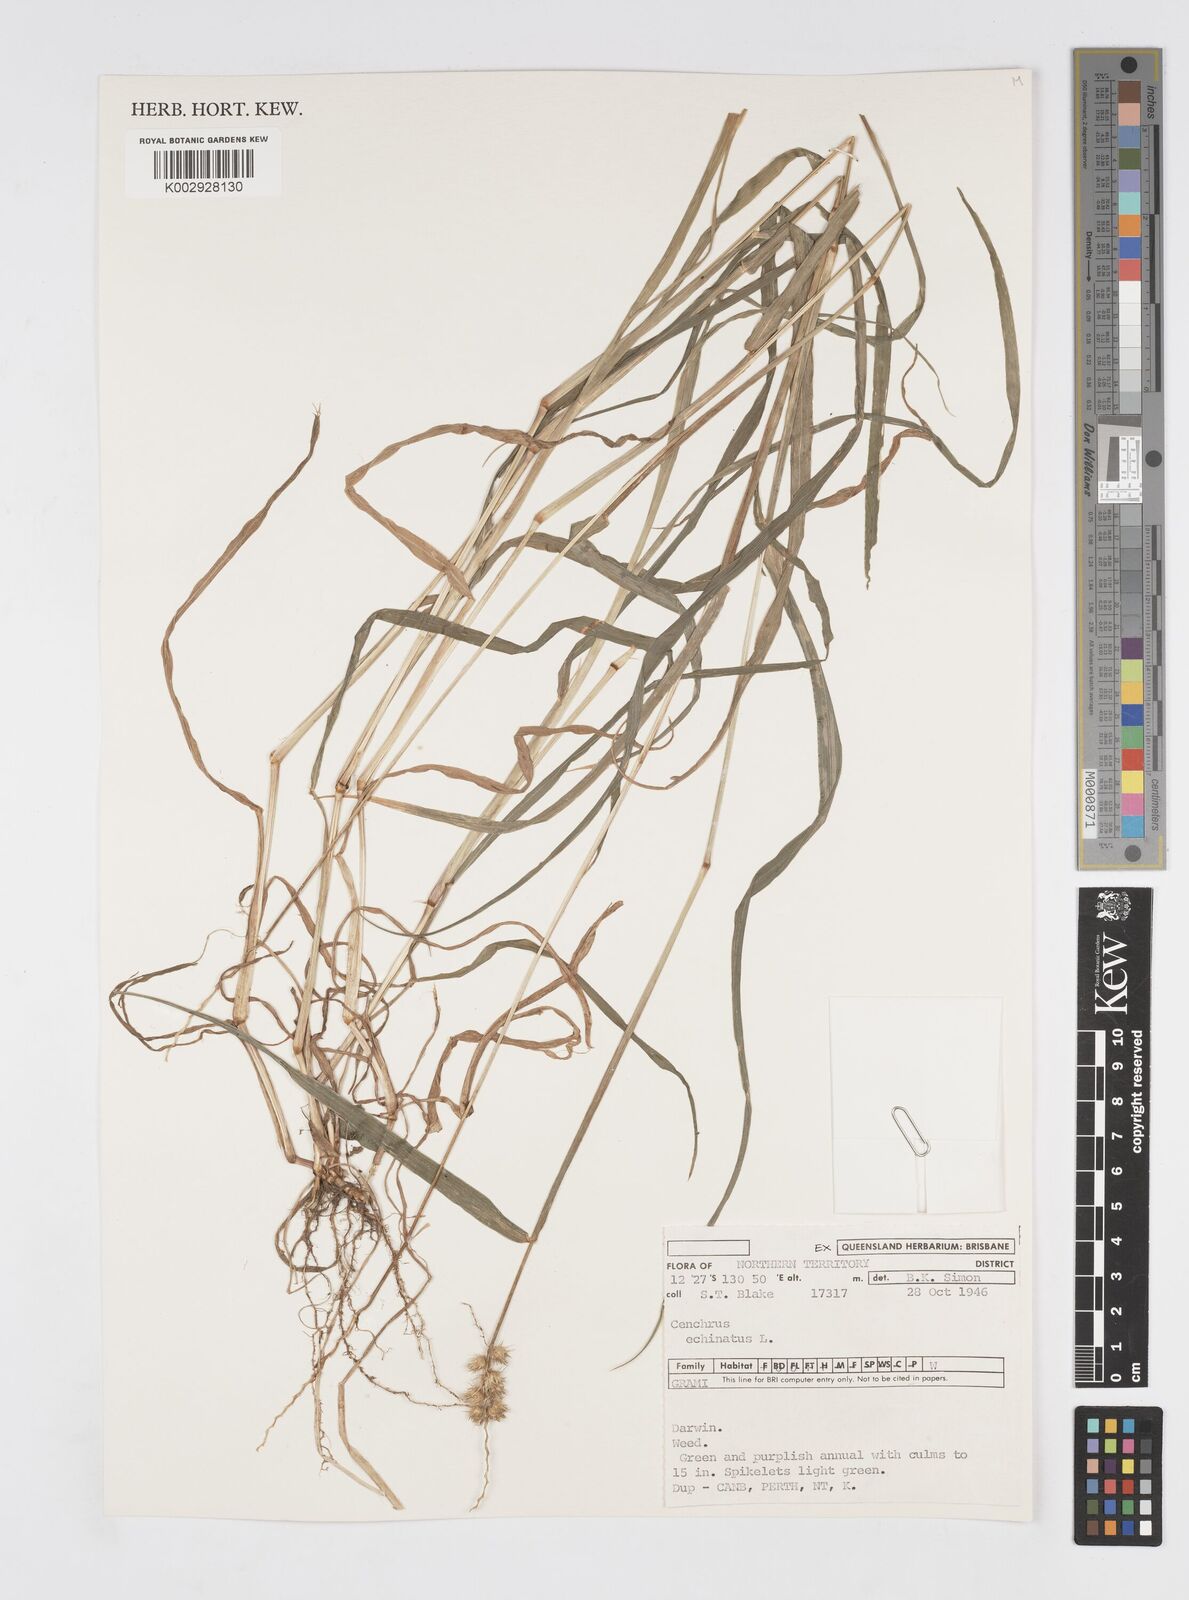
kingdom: Plantae
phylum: Tracheophyta
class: Liliopsida
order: Poales
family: Poaceae
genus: Cenchrus
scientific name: Cenchrus echinatus
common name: Southern sandbur
